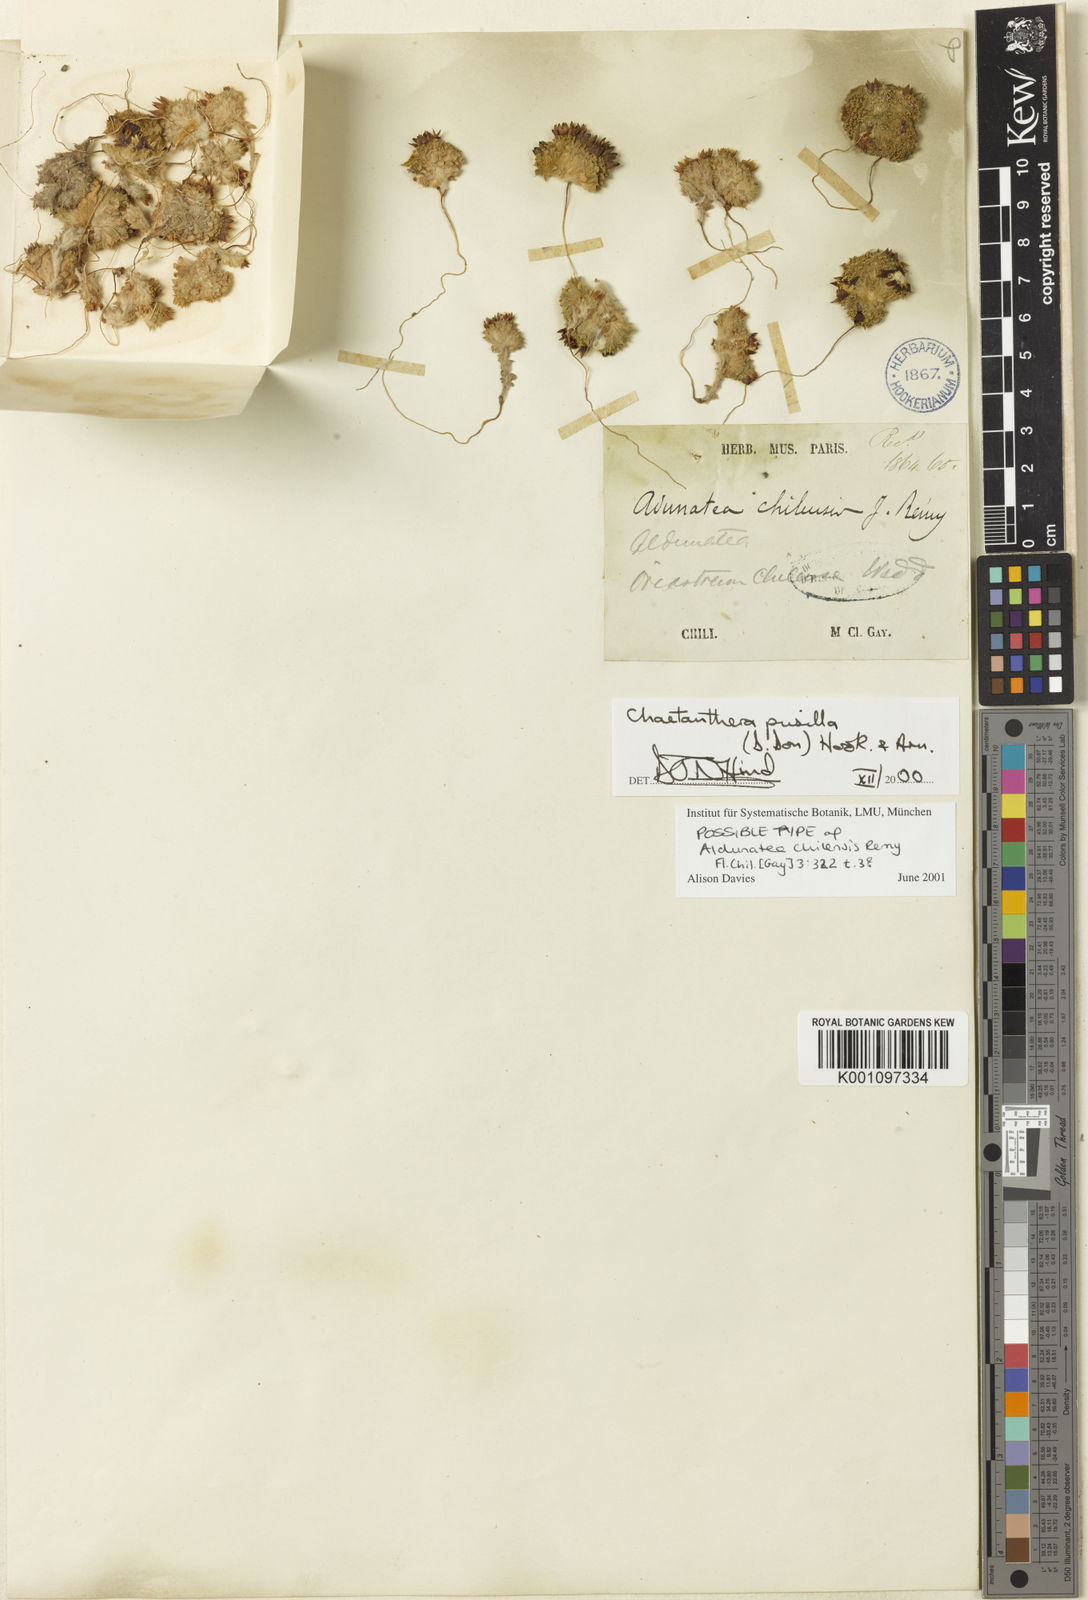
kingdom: Plantae
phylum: Tracheophyta
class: Magnoliopsida
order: Asterales
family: Asteraceae
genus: Oriastrum
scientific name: Oriastrum pusillum
